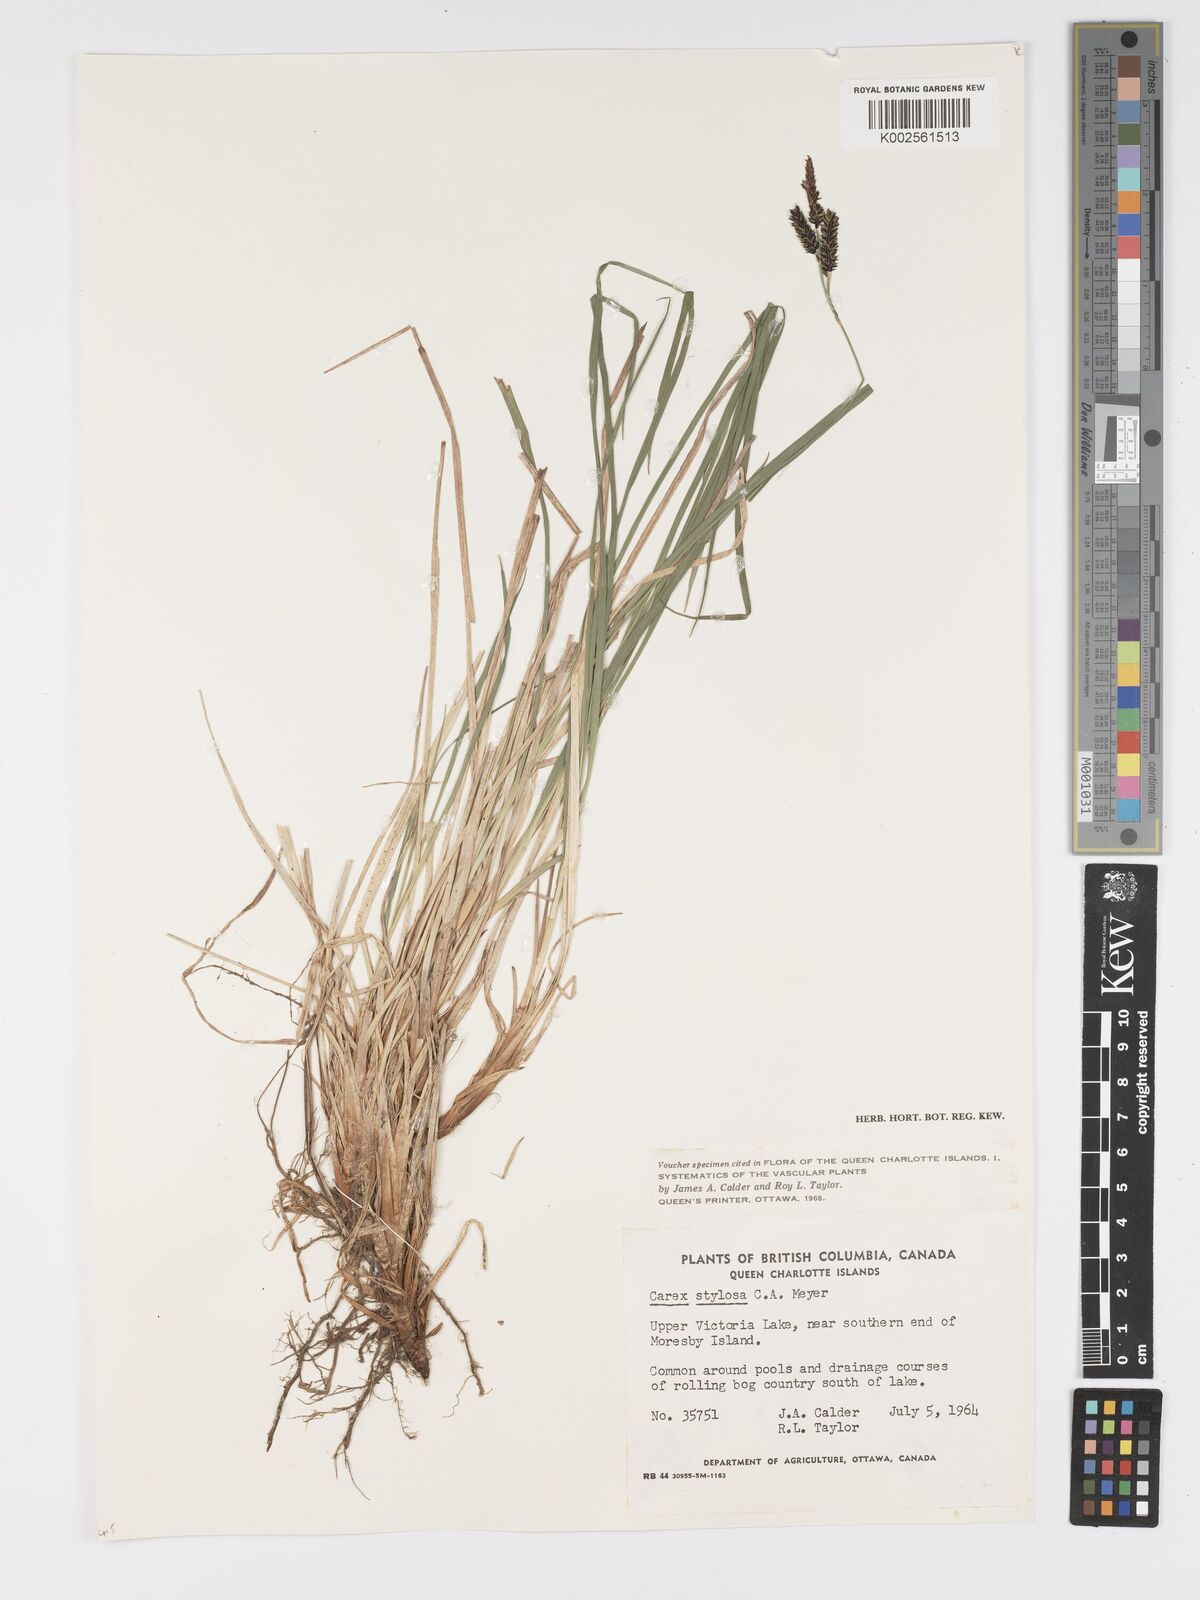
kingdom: Plantae
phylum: Tracheophyta
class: Liliopsida
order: Poales
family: Cyperaceae
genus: Carex
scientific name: Carex stylosa
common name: Long-styled sedge
